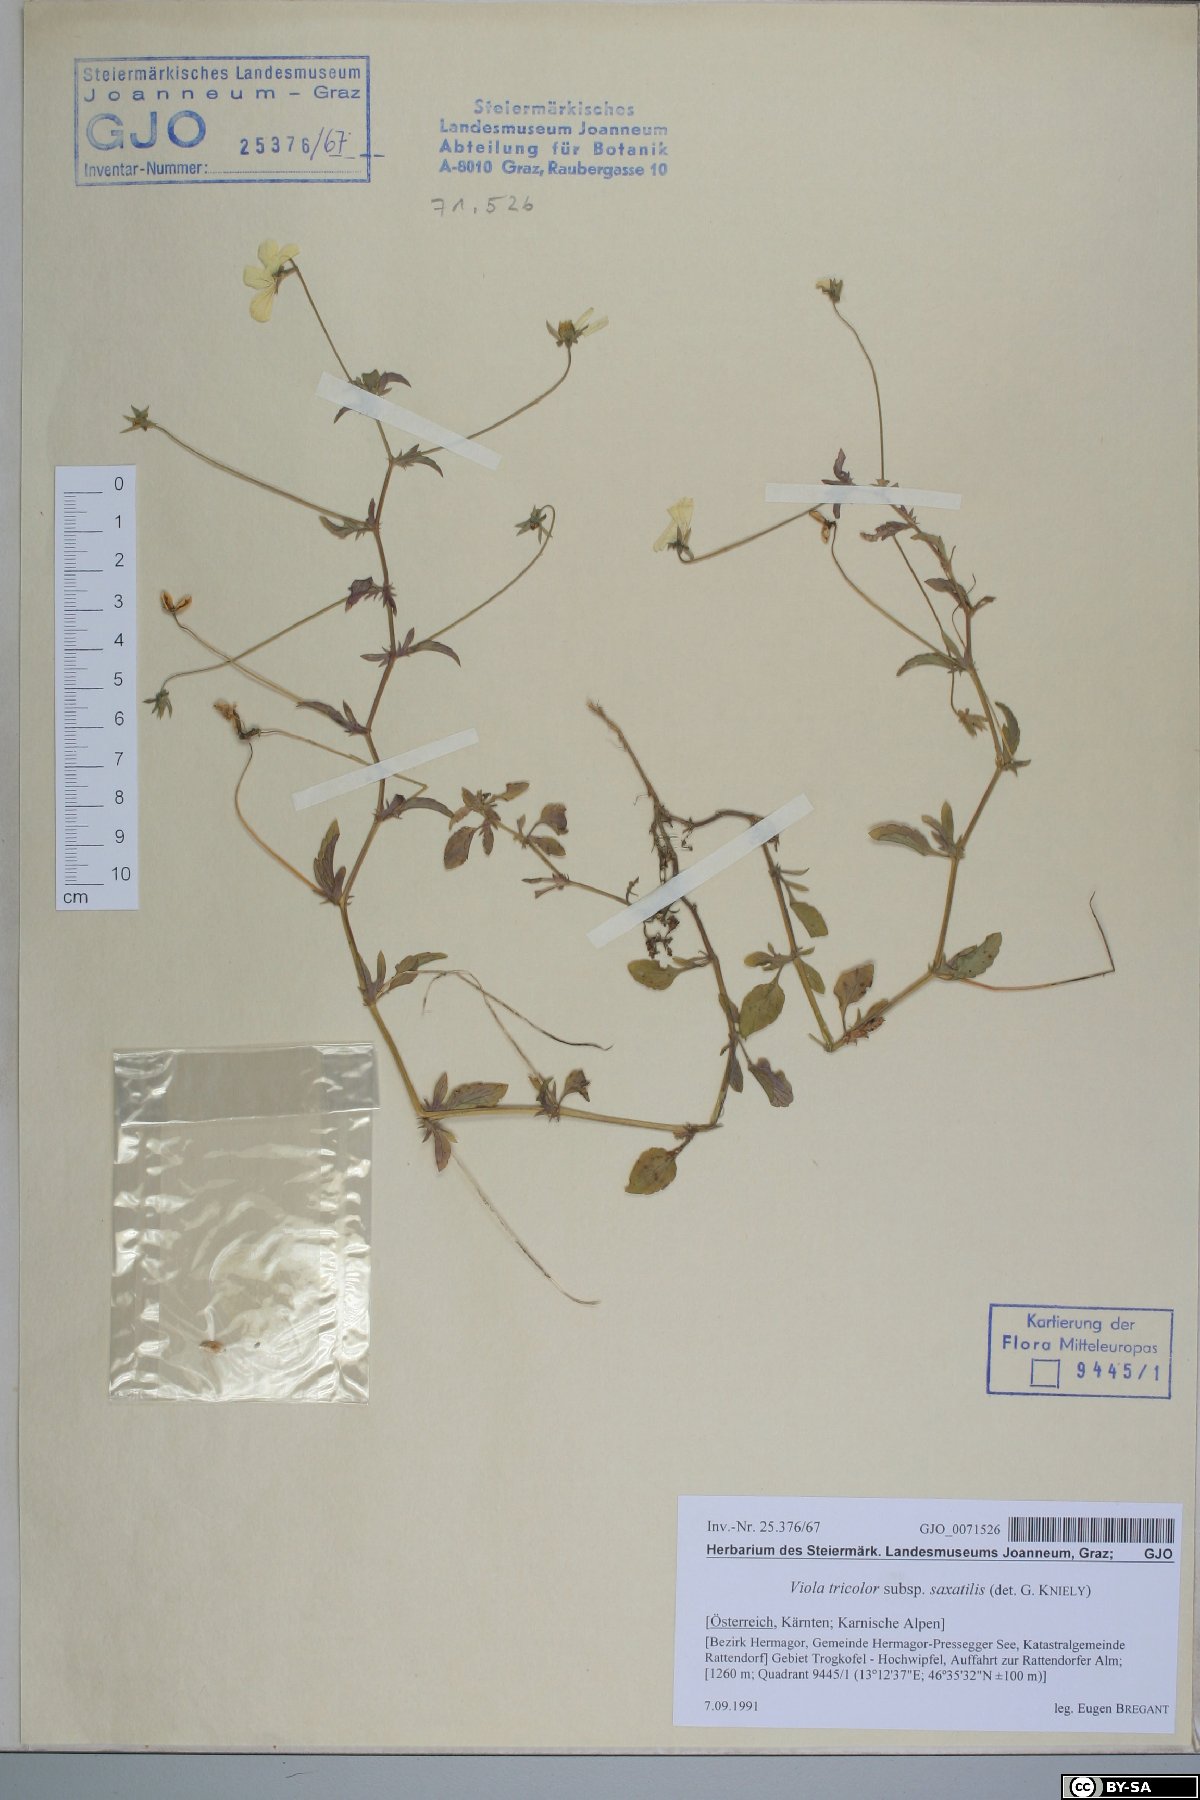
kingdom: Plantae
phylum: Tracheophyta
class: Magnoliopsida
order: Malpighiales
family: Violaceae
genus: Viola
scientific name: Viola tricolor
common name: Pansy
